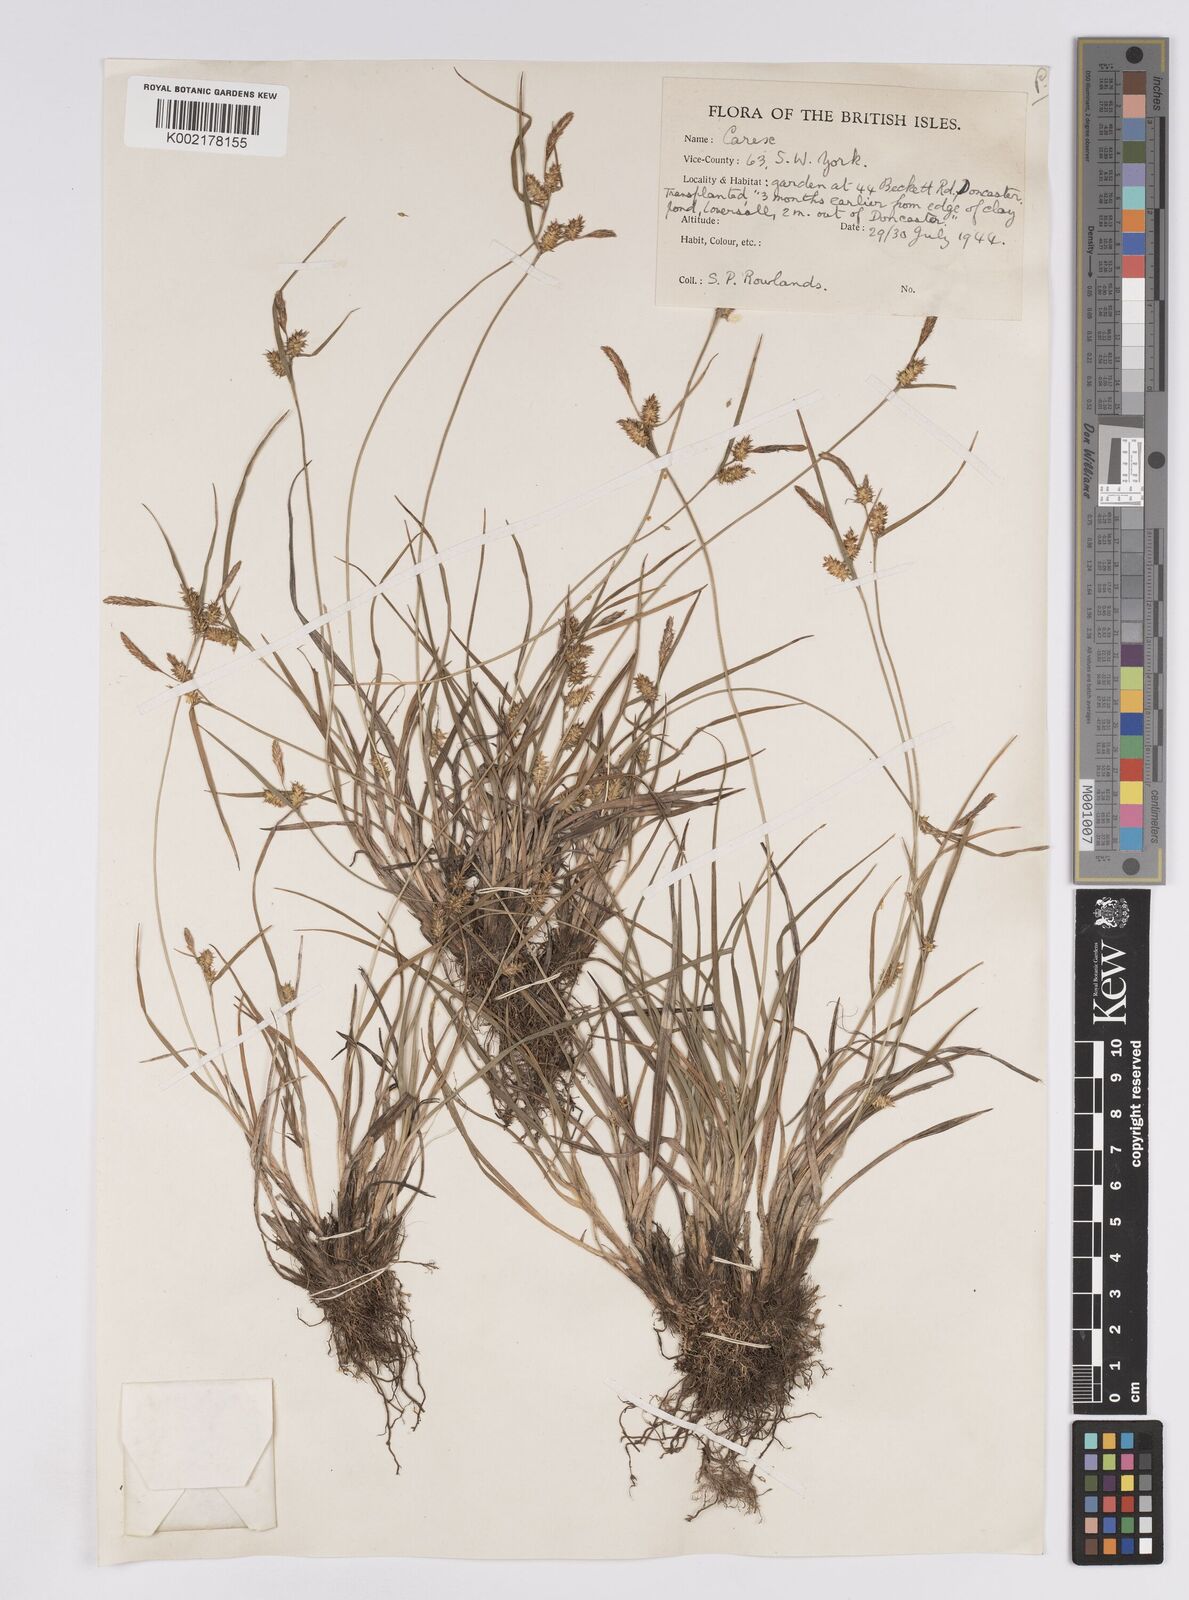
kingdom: Plantae
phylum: Tracheophyta
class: Liliopsida
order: Poales
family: Cyperaceae
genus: Carex
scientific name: Carex demissa
